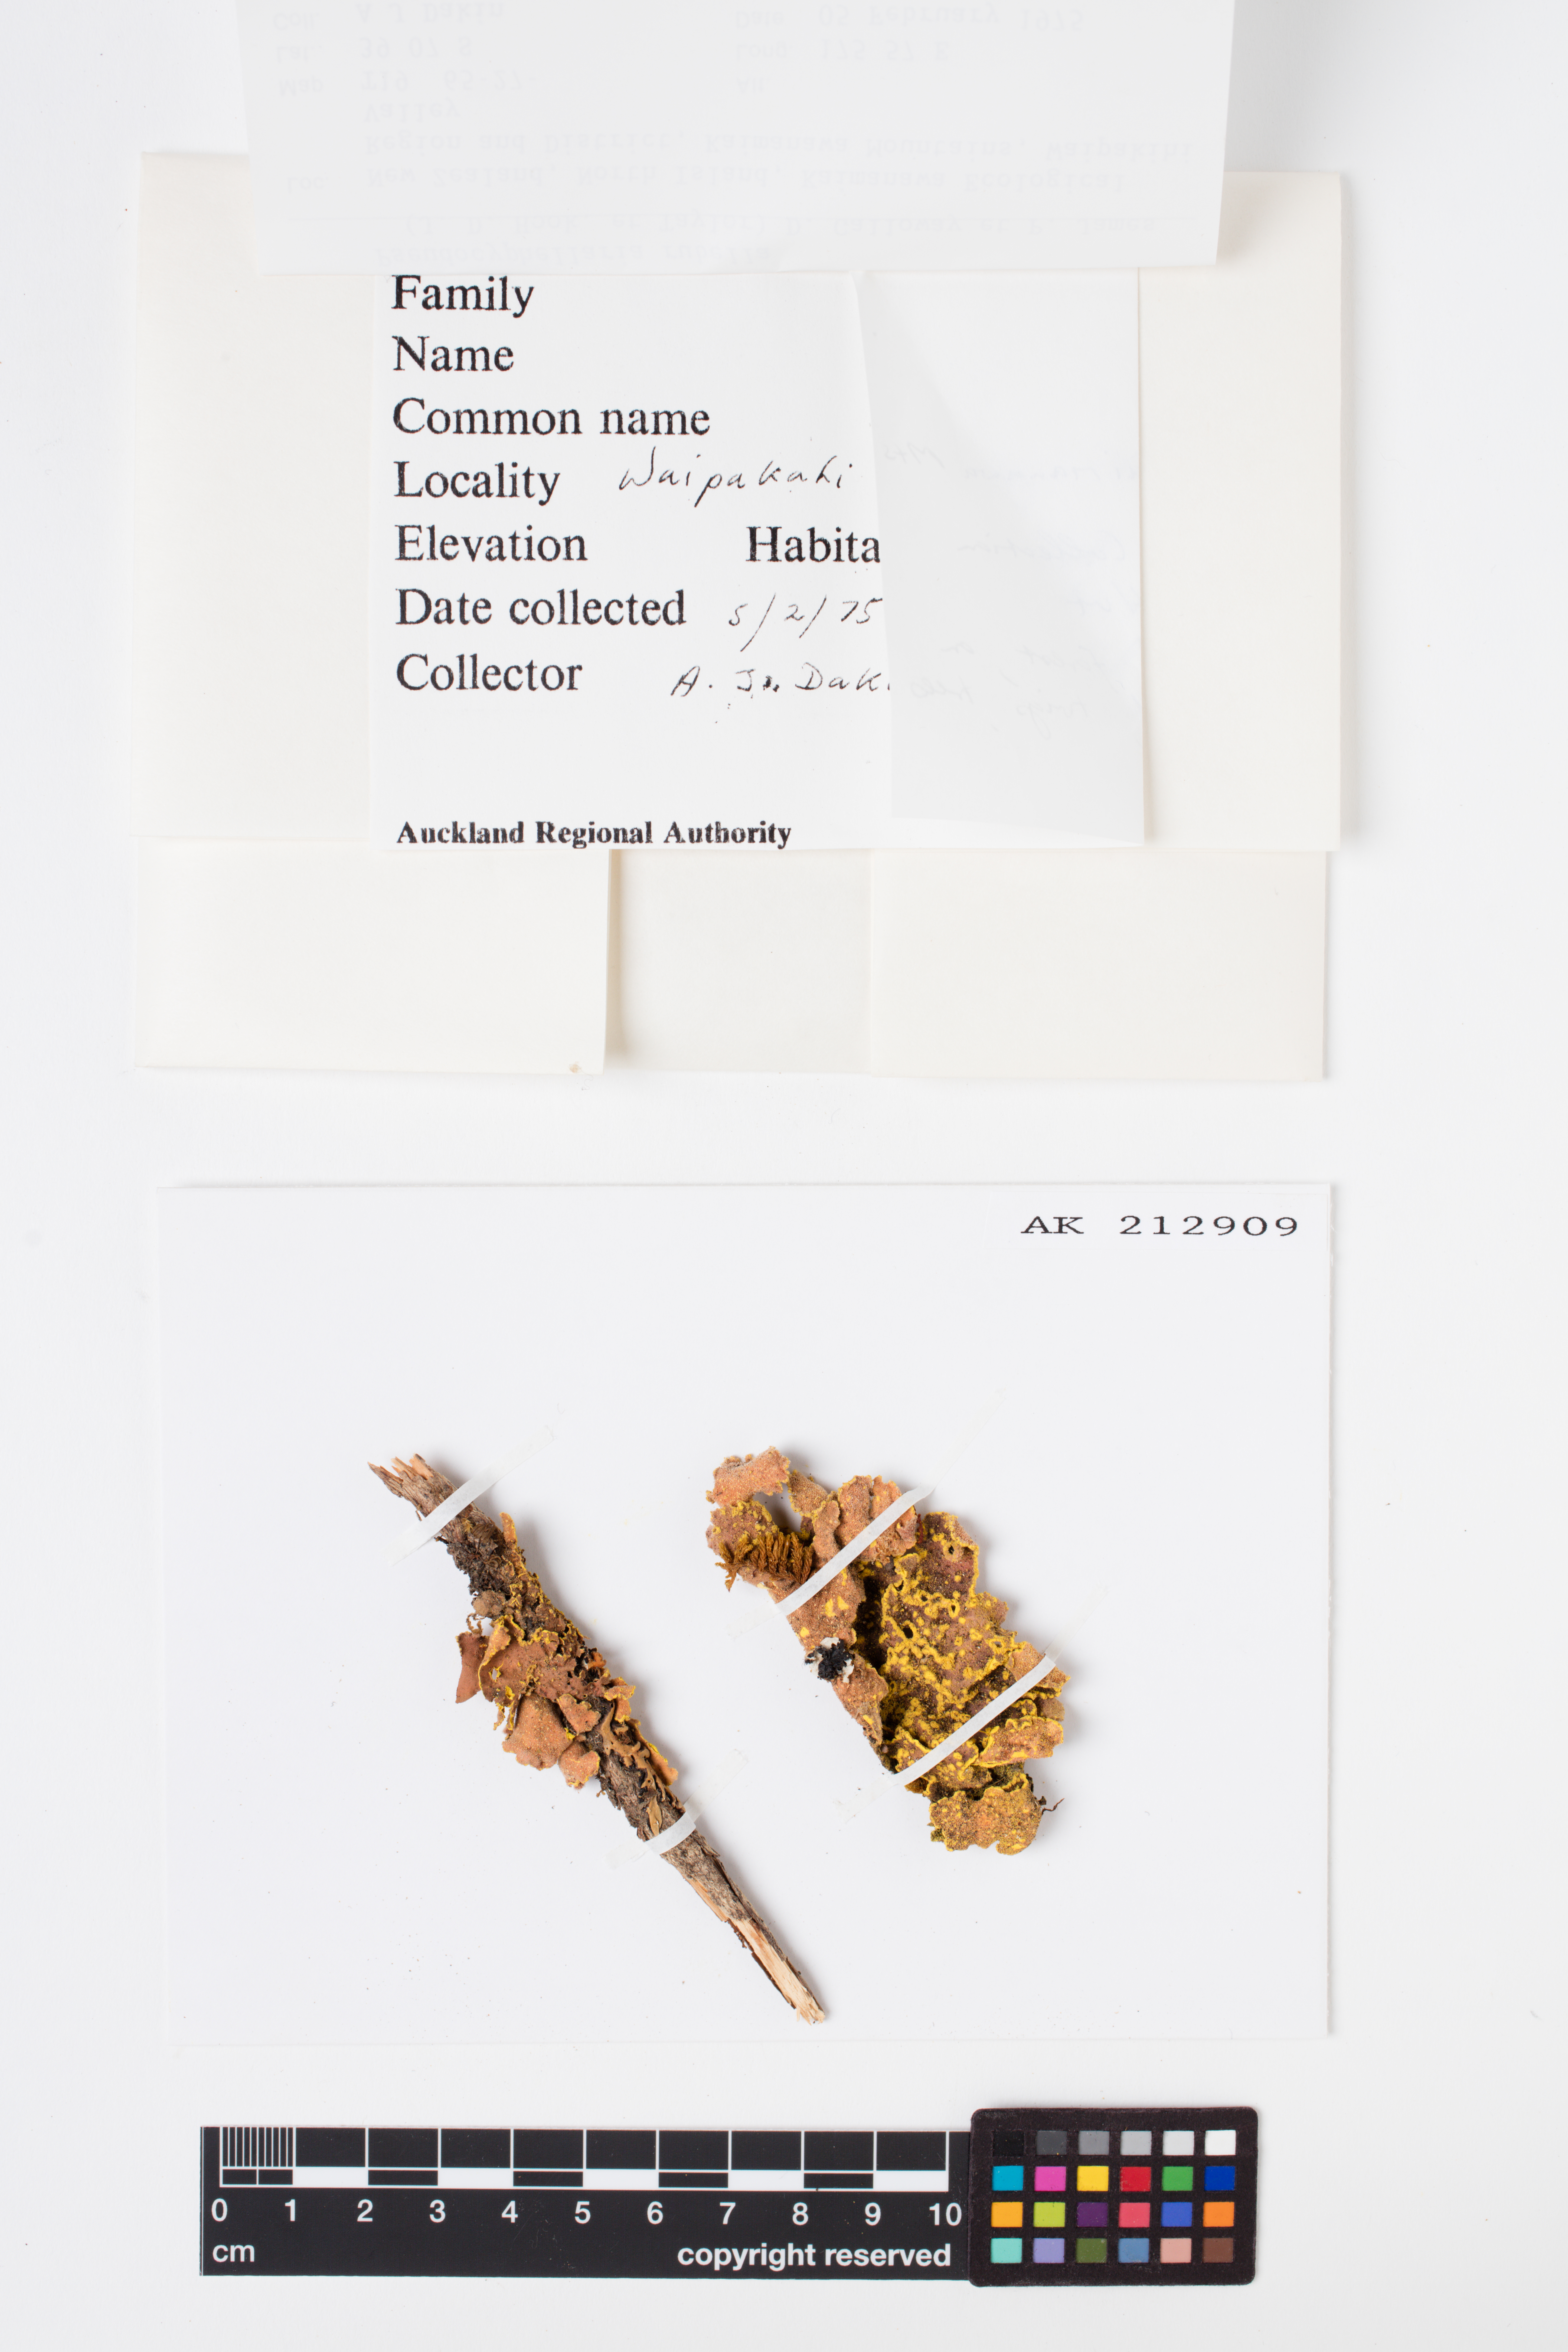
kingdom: Fungi
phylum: Ascomycota
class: Lecanoromycetes
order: Peltigerales
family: Lobariaceae
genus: Pseudocyphellaria
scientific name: Pseudocyphellaria rubella
